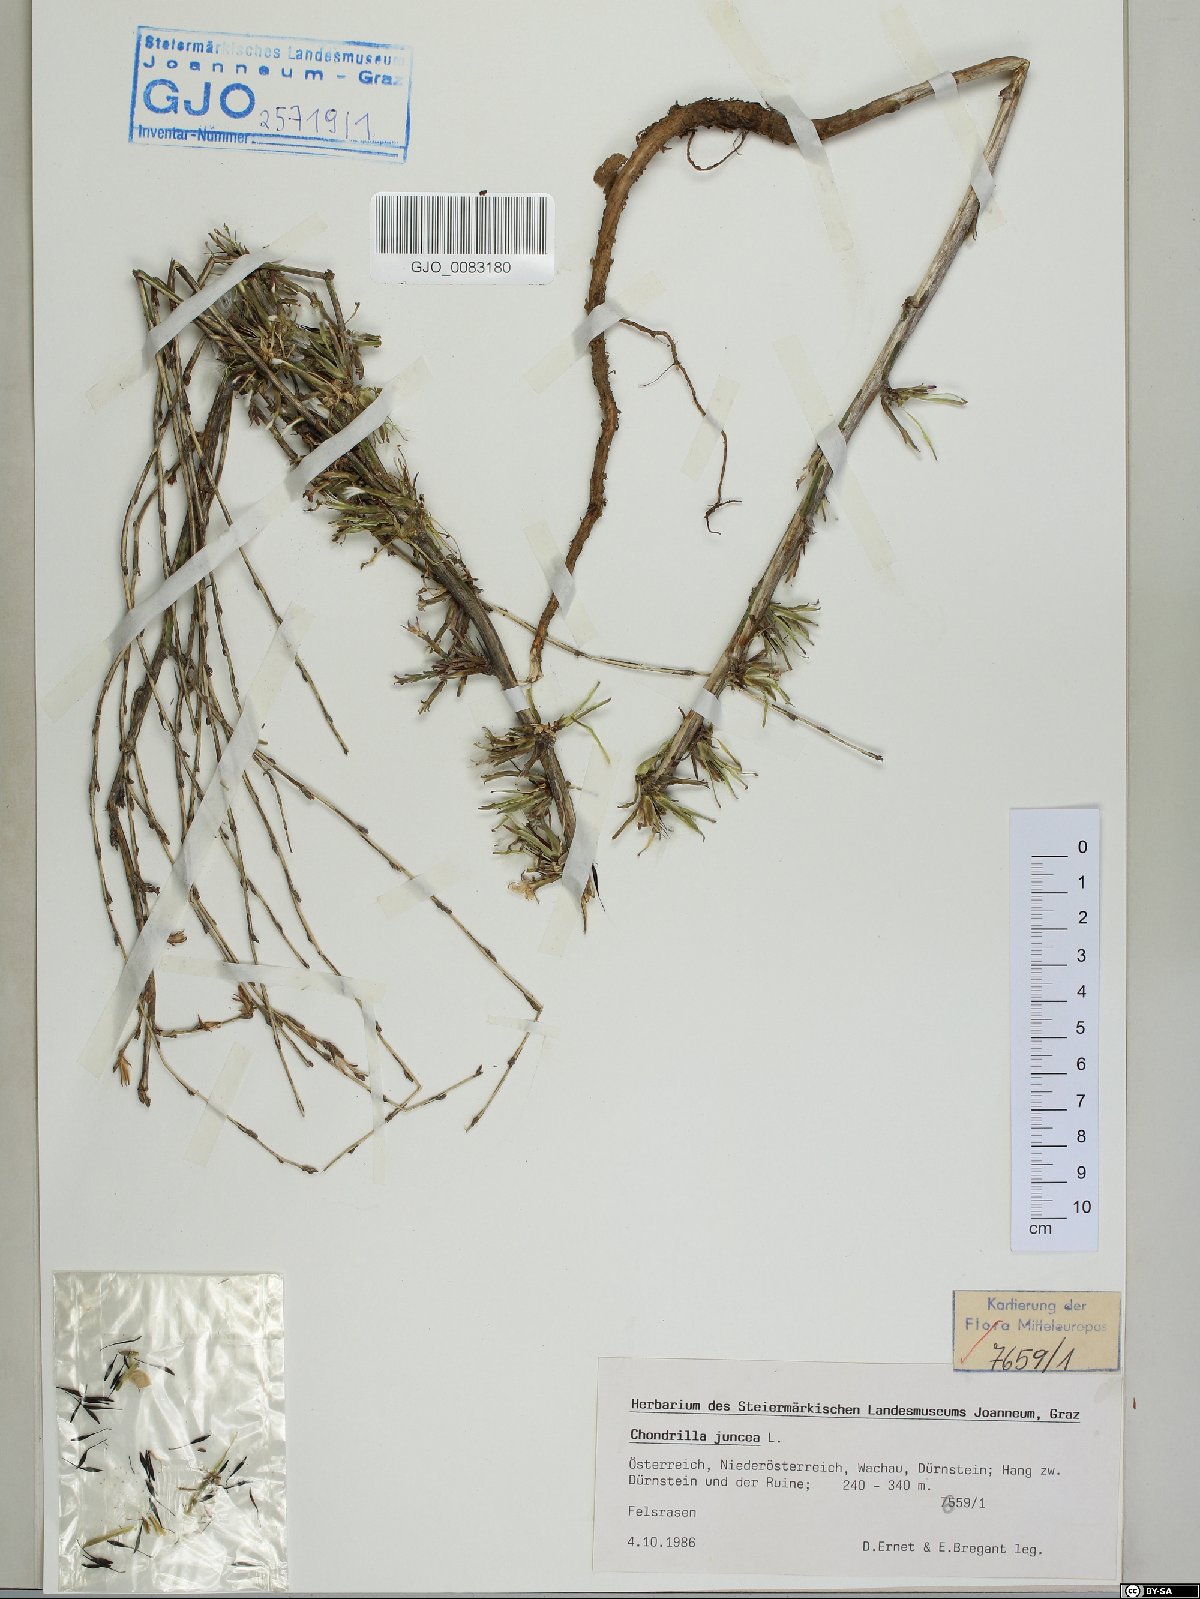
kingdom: Plantae
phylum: Tracheophyta
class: Magnoliopsida
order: Asterales
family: Asteraceae
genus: Chondrilla
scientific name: Chondrilla juncea
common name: Skeleton weed
